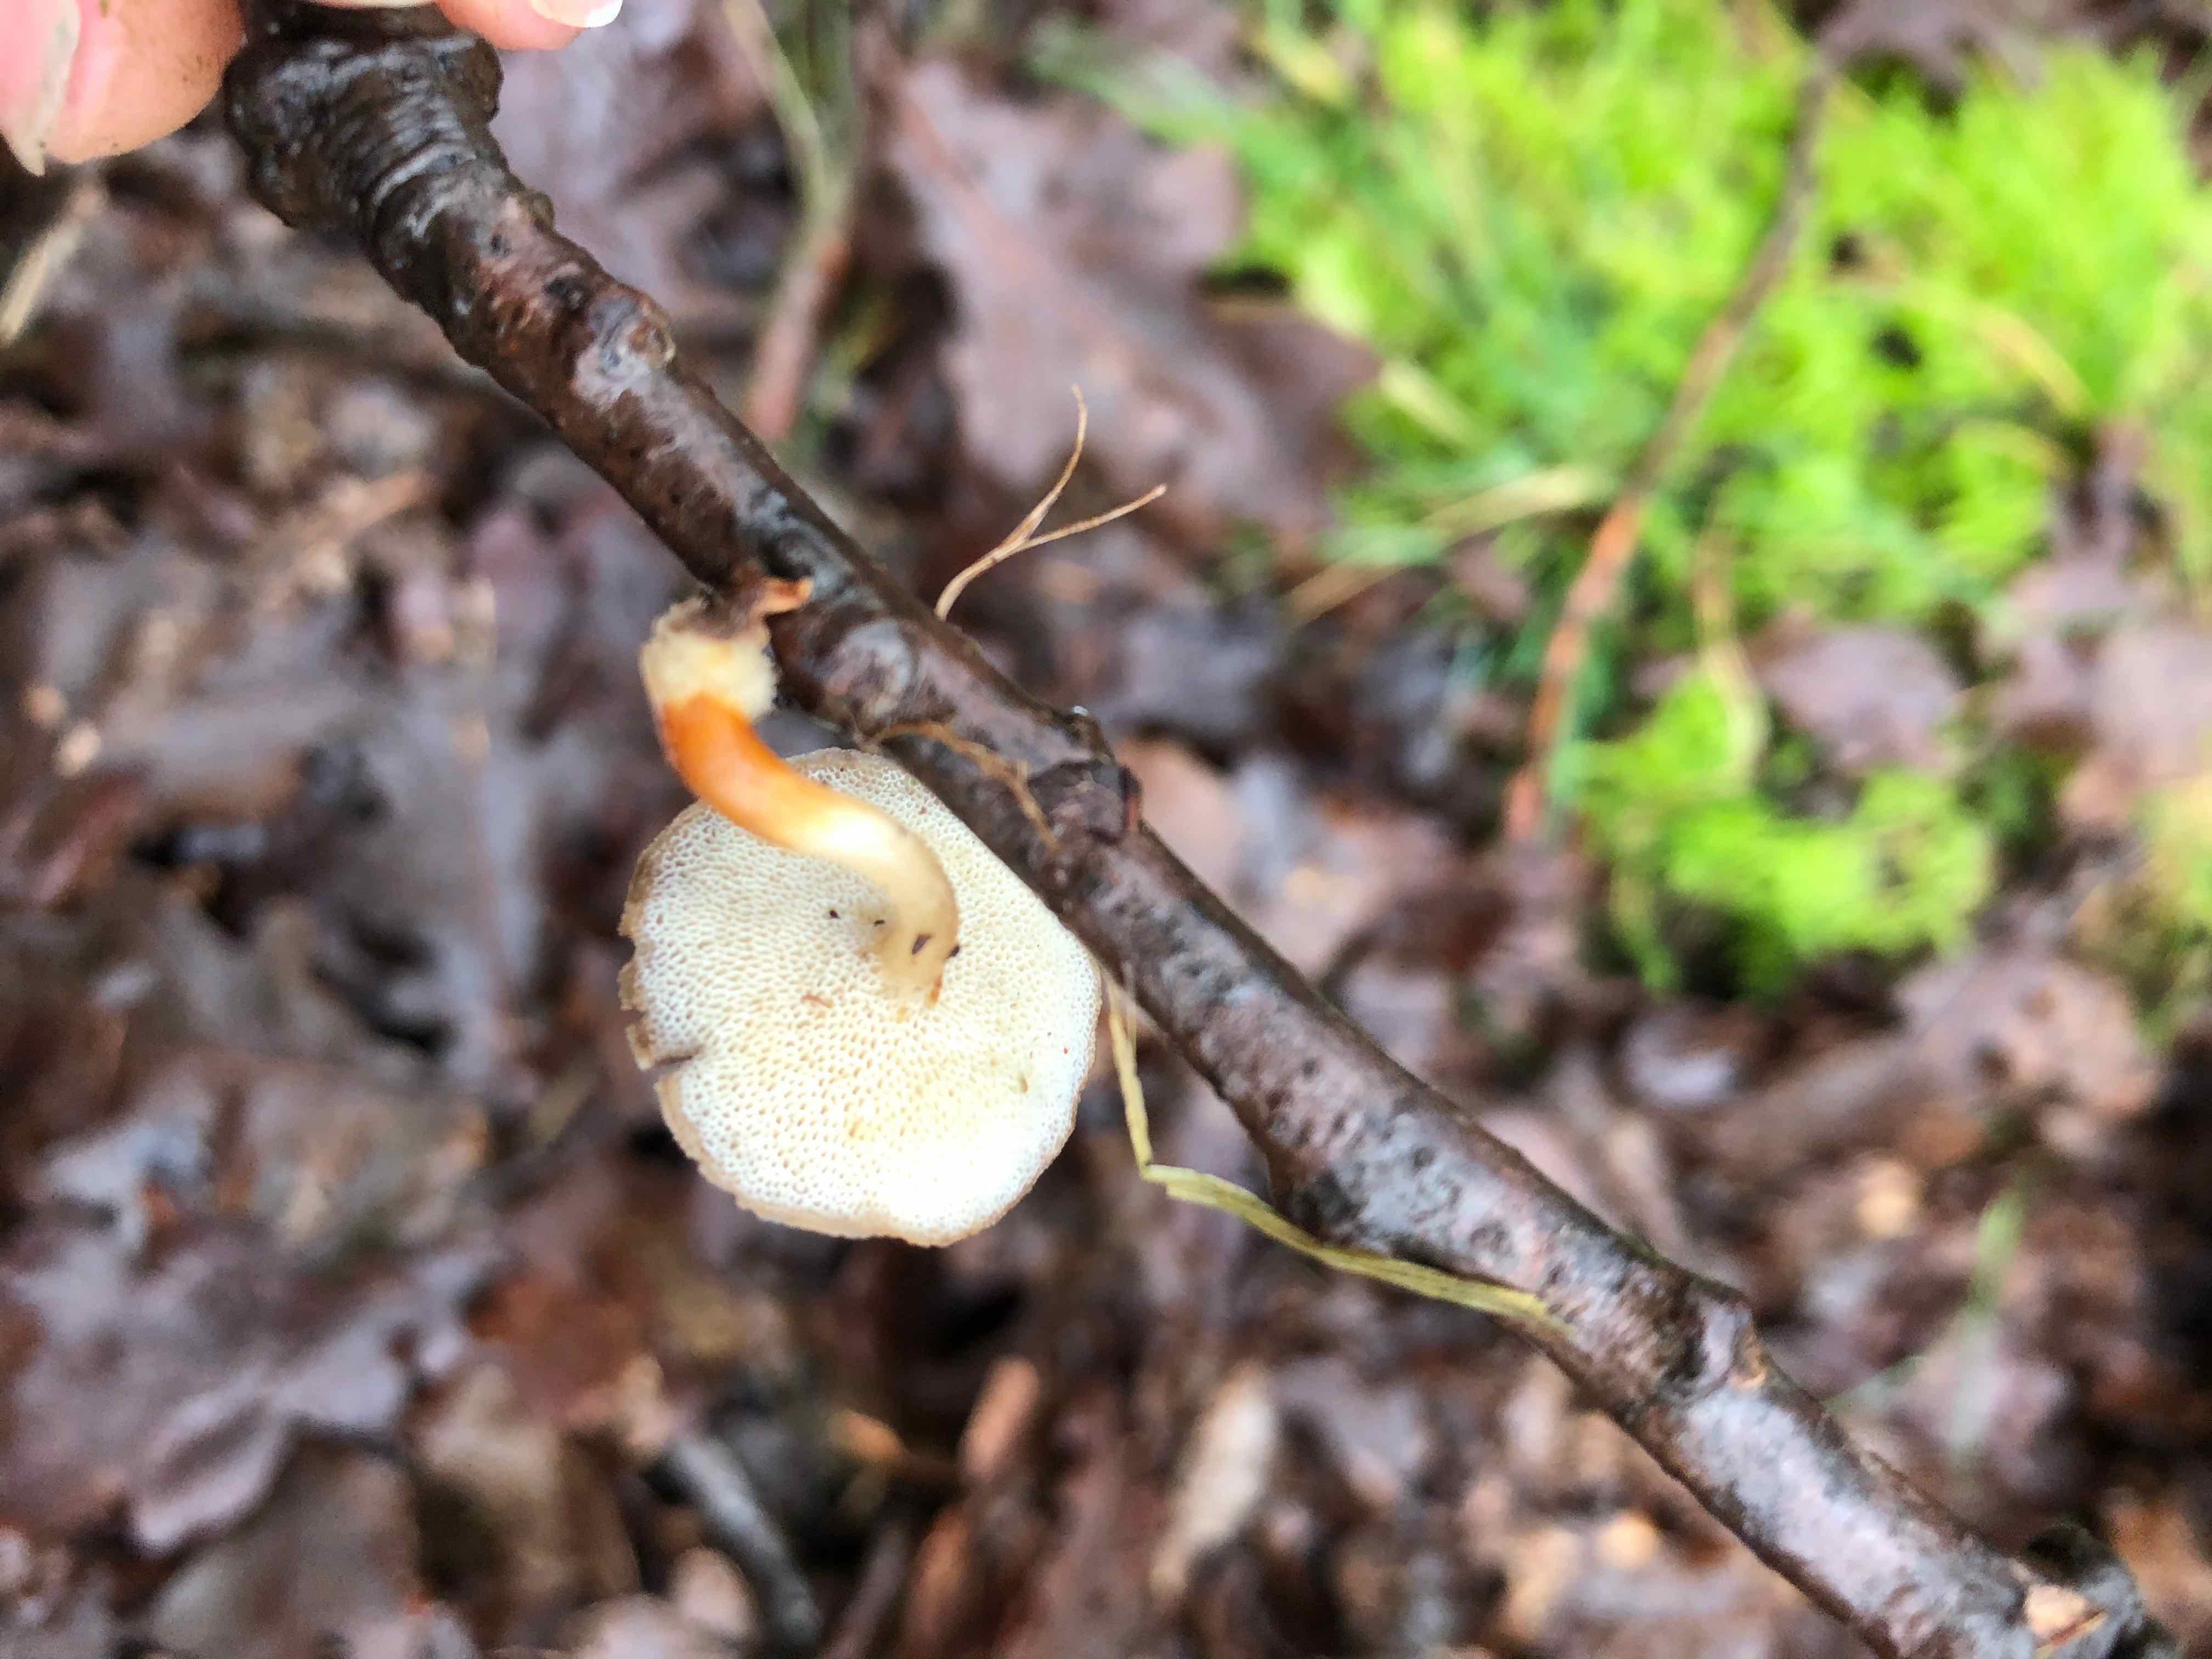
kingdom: Fungi
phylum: Basidiomycota
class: Agaricomycetes
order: Polyporales
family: Polyporaceae
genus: Lentinus
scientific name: Lentinus brumalis
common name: vinter-stilkporesvamp
